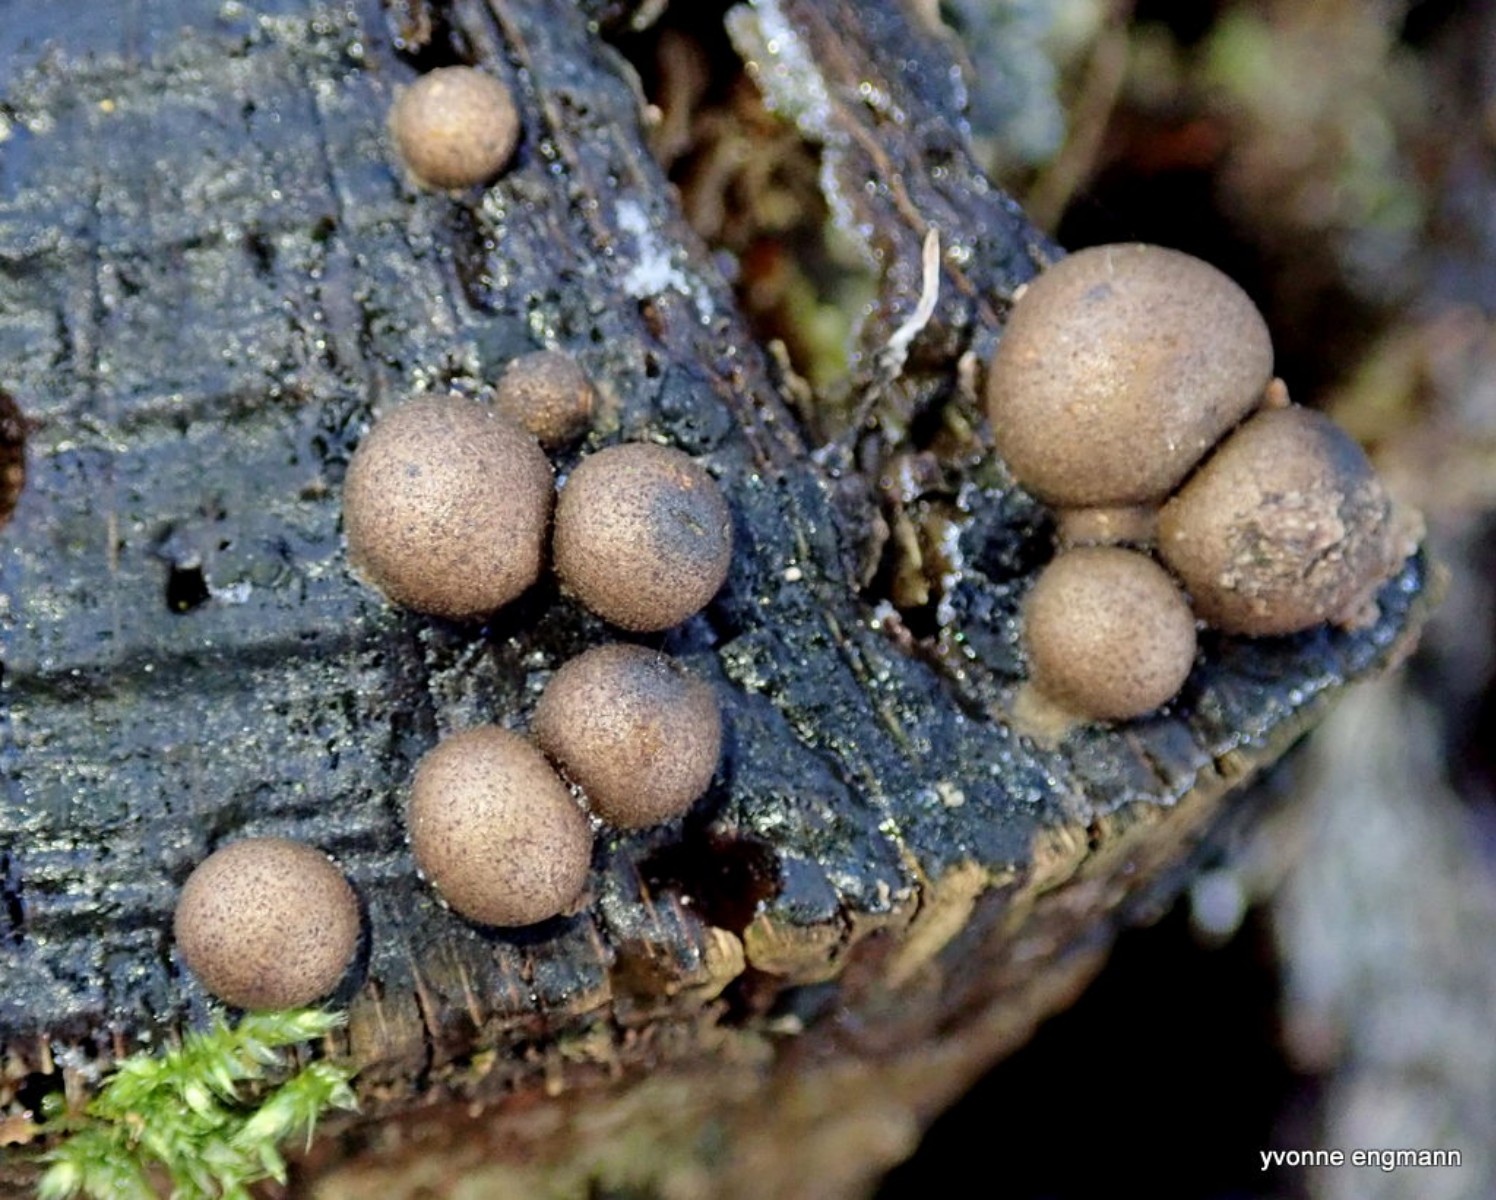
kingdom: Protozoa
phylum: Mycetozoa
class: Myxomycetes
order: Cribrariales
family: Tubiferaceae
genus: Lycogala
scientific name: Lycogala epidendrum
